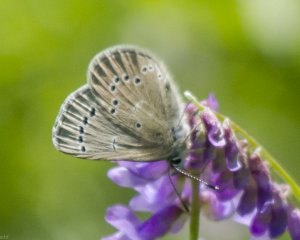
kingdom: Animalia
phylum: Arthropoda
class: Insecta
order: Lepidoptera
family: Lycaenidae
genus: Glaucopsyche
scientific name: Glaucopsyche lygdamus
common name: Silvery Blue
